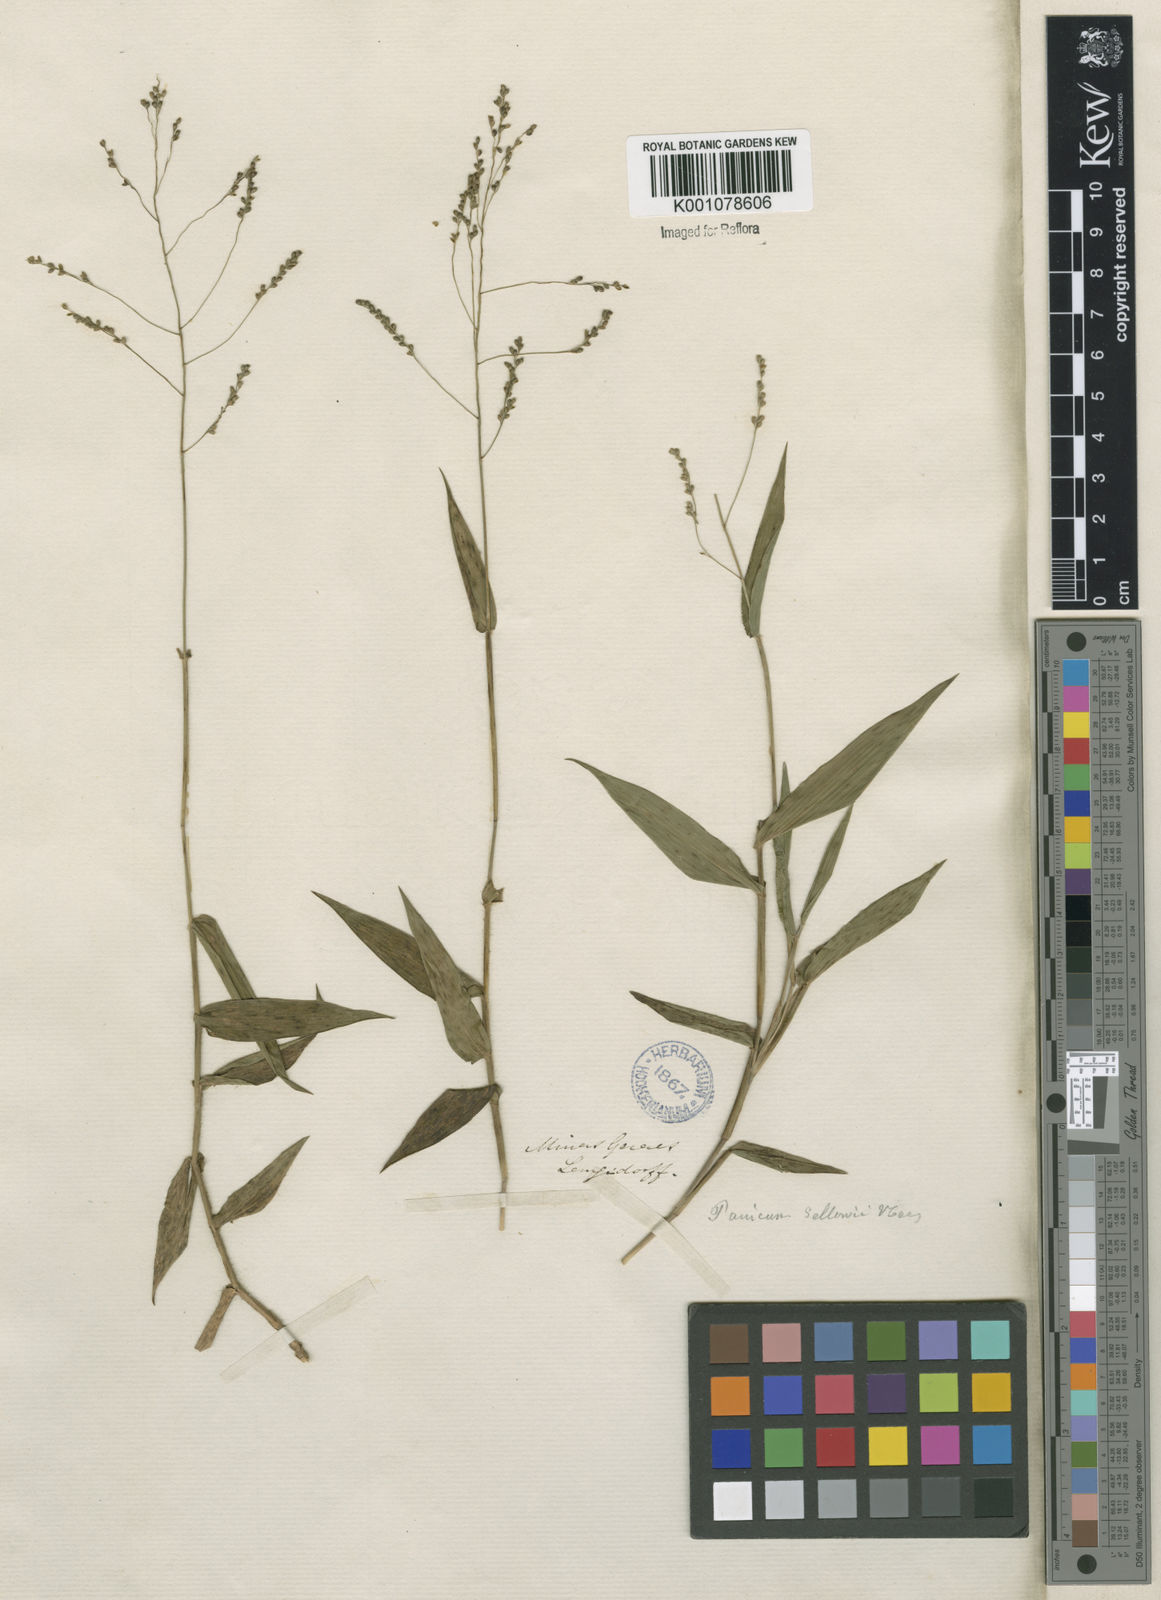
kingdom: Plantae
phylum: Tracheophyta
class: Liliopsida
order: Poales
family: Poaceae
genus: Panicum
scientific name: Panicum sellowii
